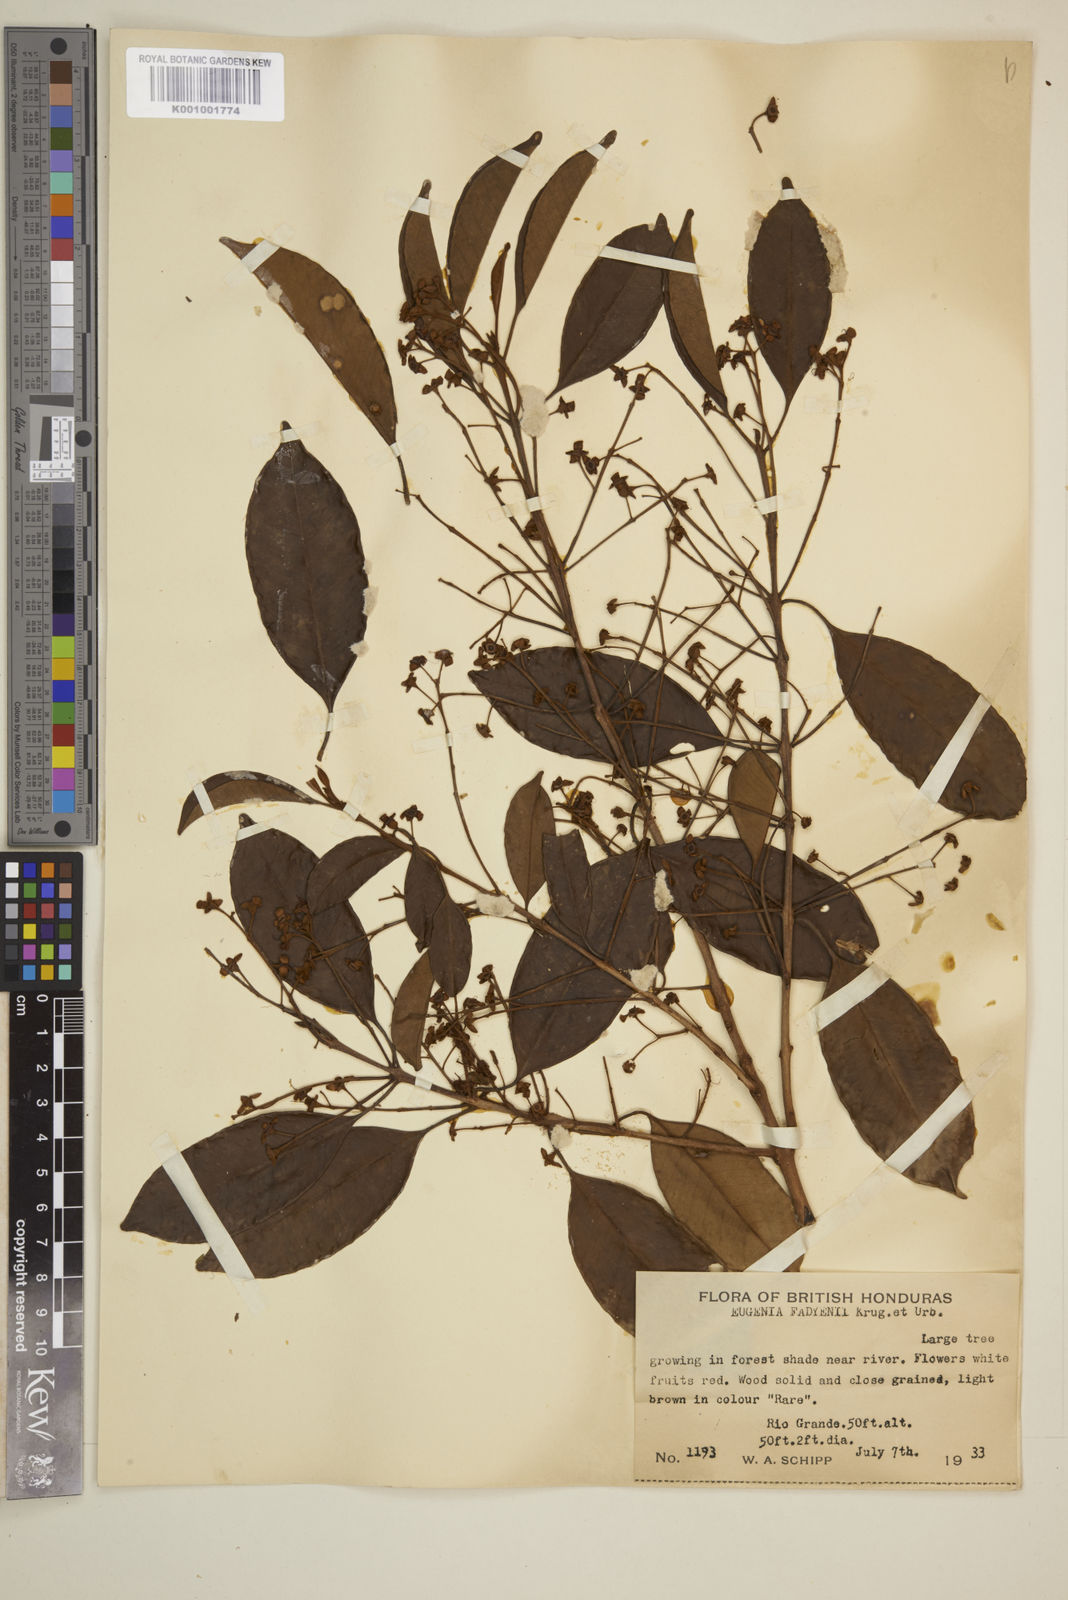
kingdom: Plantae
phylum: Tracheophyta
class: Magnoliopsida
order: Myrtales
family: Myrtaceae
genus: Eugenia
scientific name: Eugenia aeruginea
